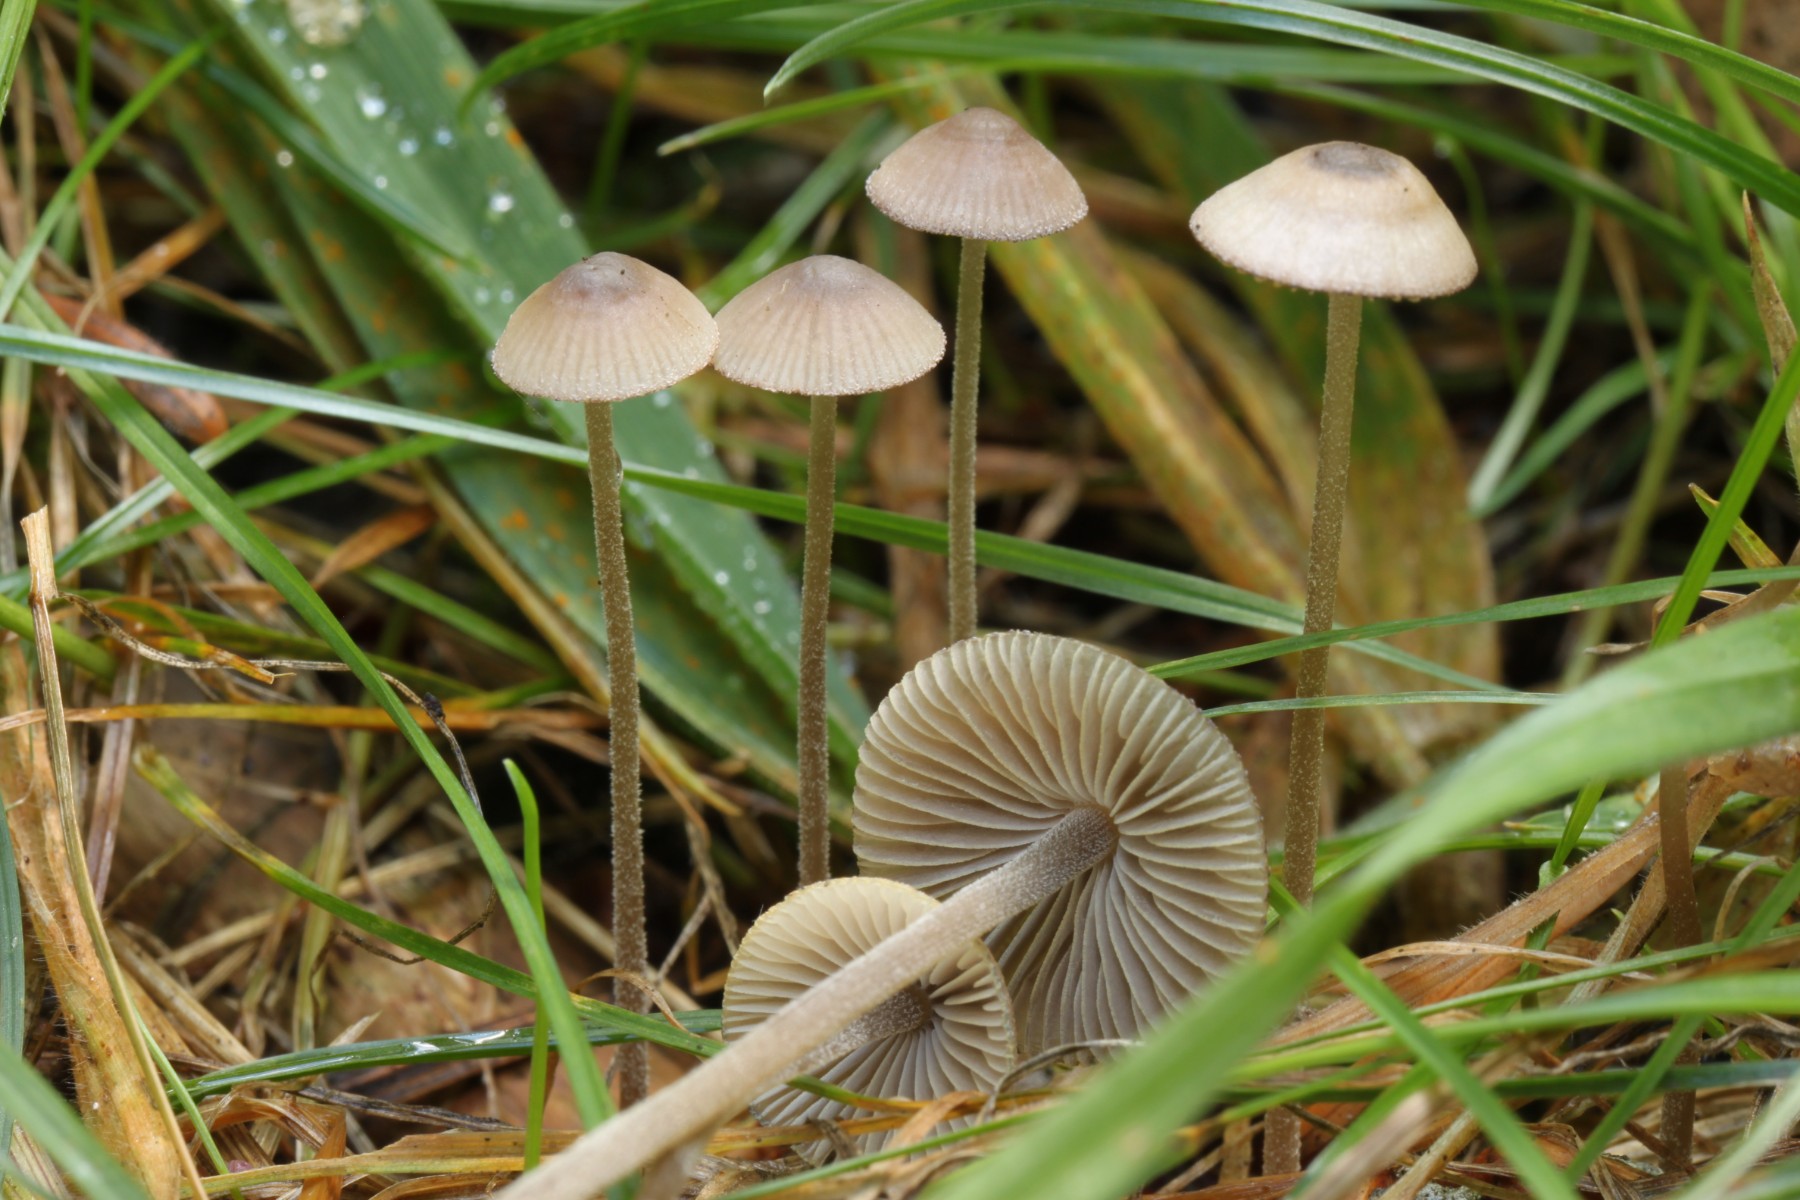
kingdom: Fungi
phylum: Basidiomycota
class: Agaricomycetes
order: Agaricales
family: Mycenaceae
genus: Mycena
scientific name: Mycena amicta
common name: iris-huesvamp
